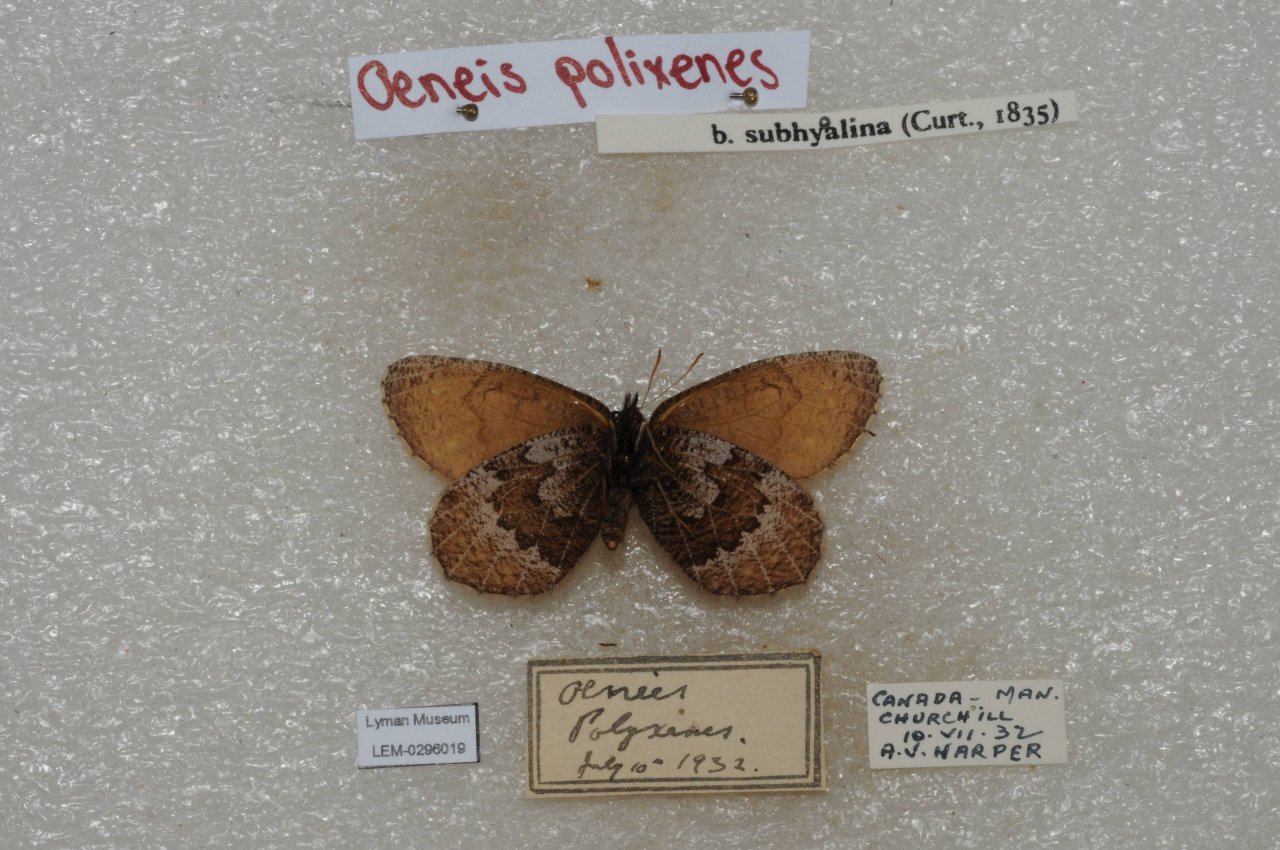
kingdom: Animalia
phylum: Arthropoda
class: Insecta
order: Lepidoptera
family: Nymphalidae
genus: Oeneis
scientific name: Oeneis bore
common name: Polixenes Arctic
